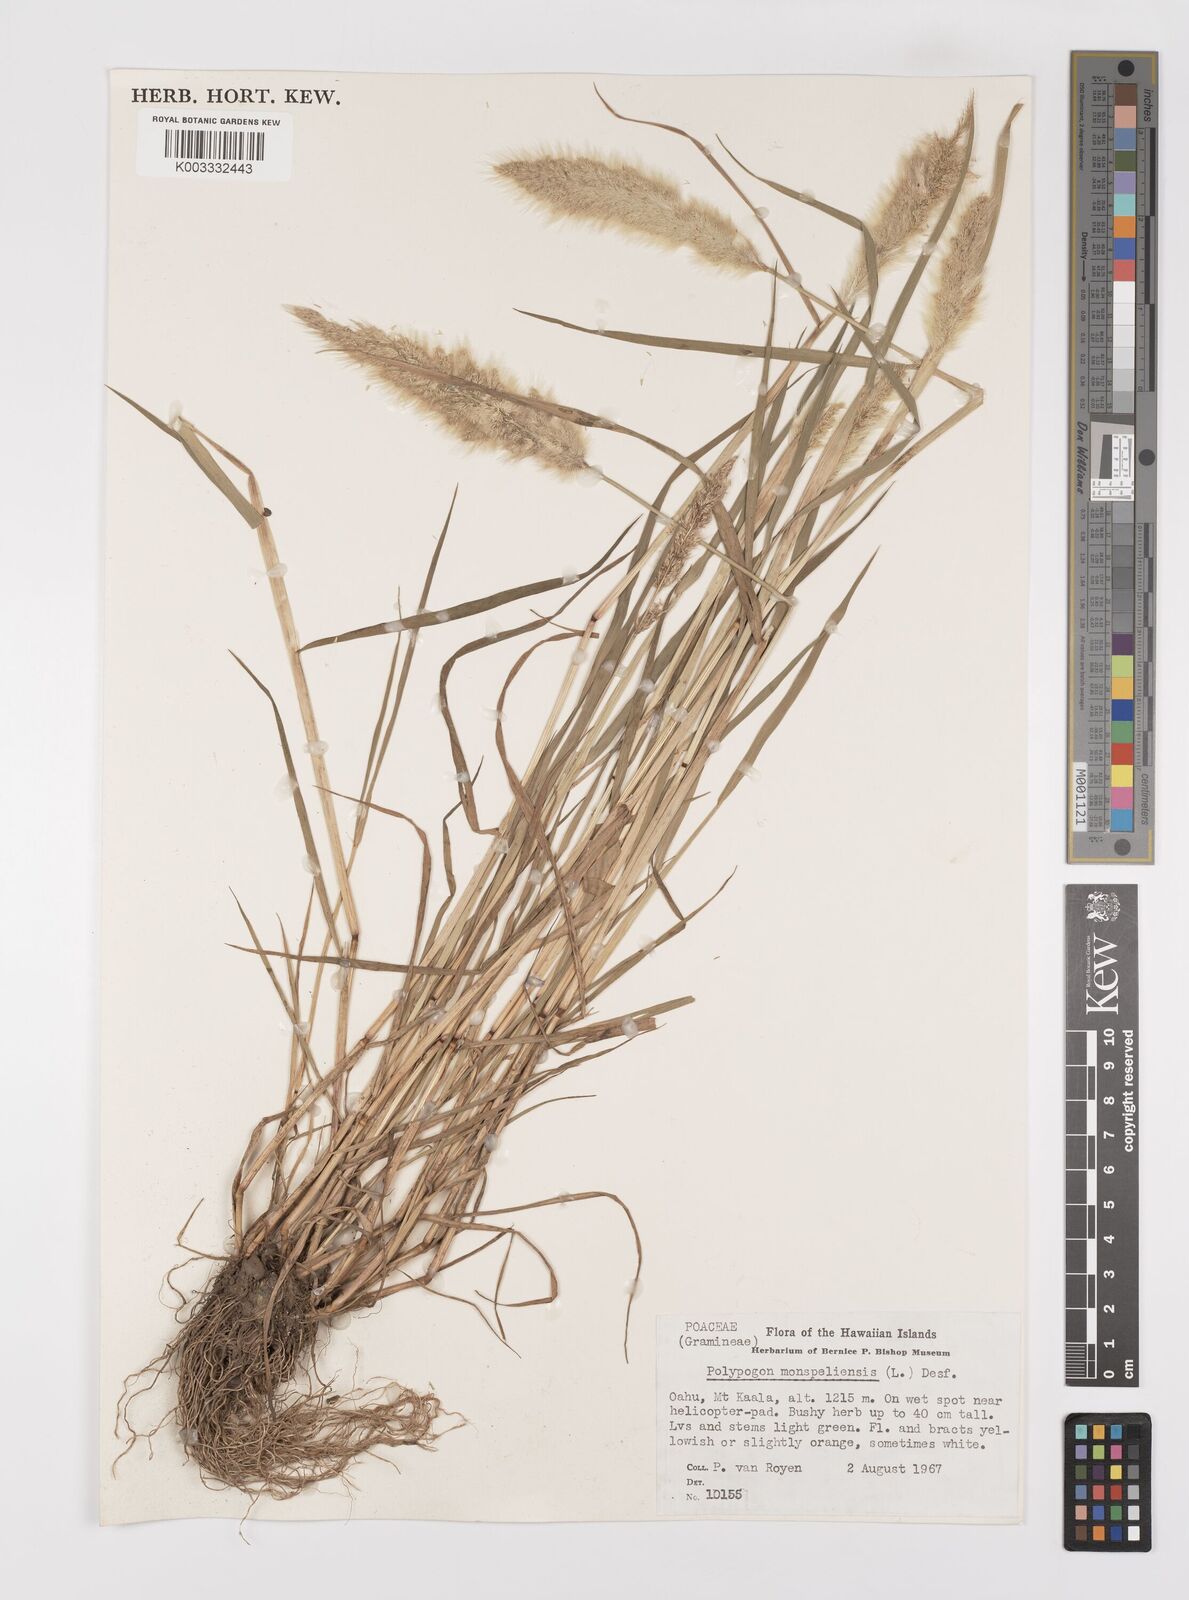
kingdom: Plantae
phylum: Tracheophyta
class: Liliopsida
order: Poales
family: Poaceae
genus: Polypogon
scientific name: Polypogon monspeliensis
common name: Annual rabbitsfoot grass
